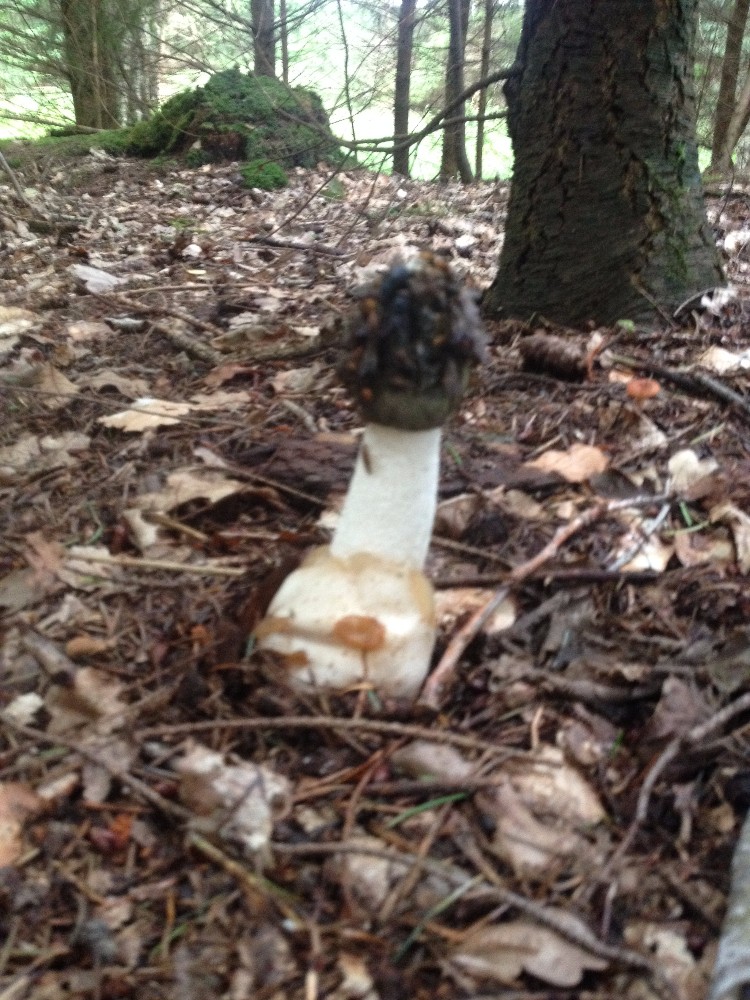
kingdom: Fungi
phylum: Basidiomycota
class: Agaricomycetes
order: Phallales
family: Phallaceae
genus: Phallus
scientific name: Phallus impudicus
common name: almindelig stinksvamp
